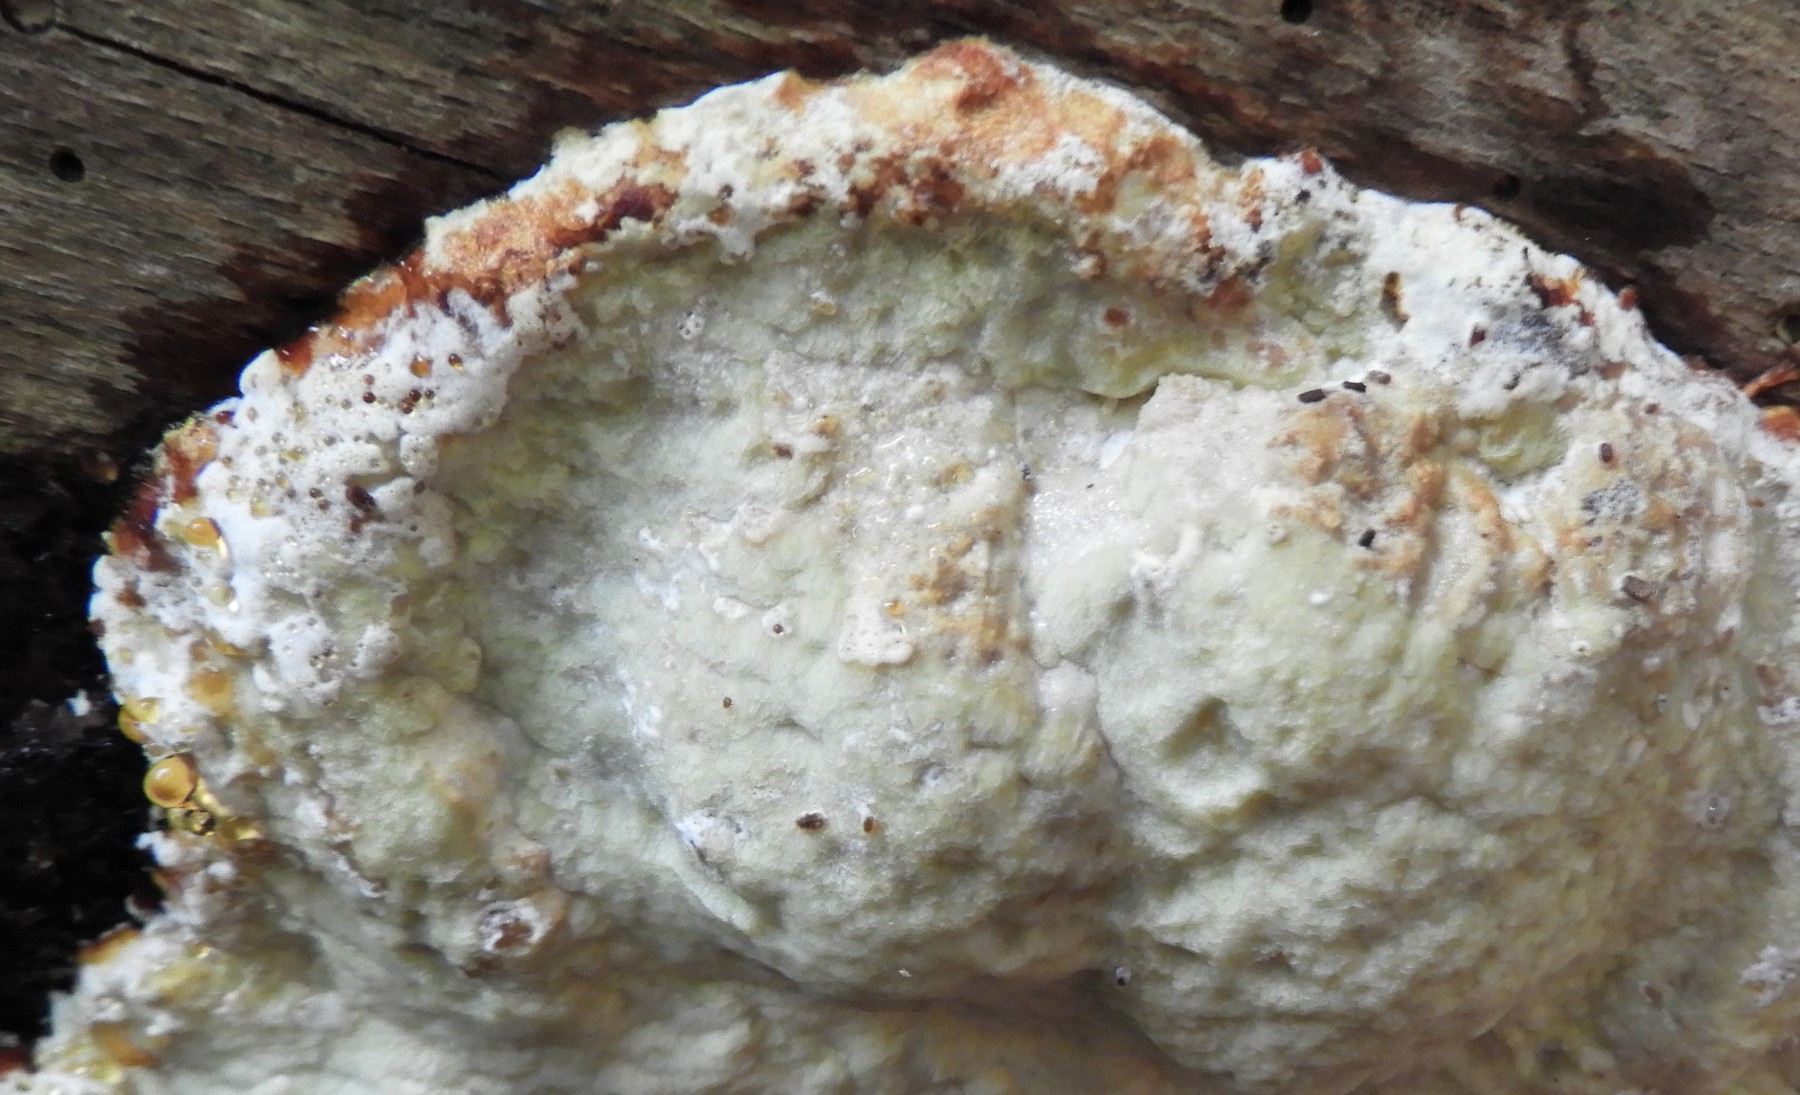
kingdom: Fungi
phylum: Basidiomycota
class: Agaricomycetes
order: Polyporales
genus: Calcipostia
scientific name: Calcipostia guttulata
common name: dråbe-kødporesvamp
